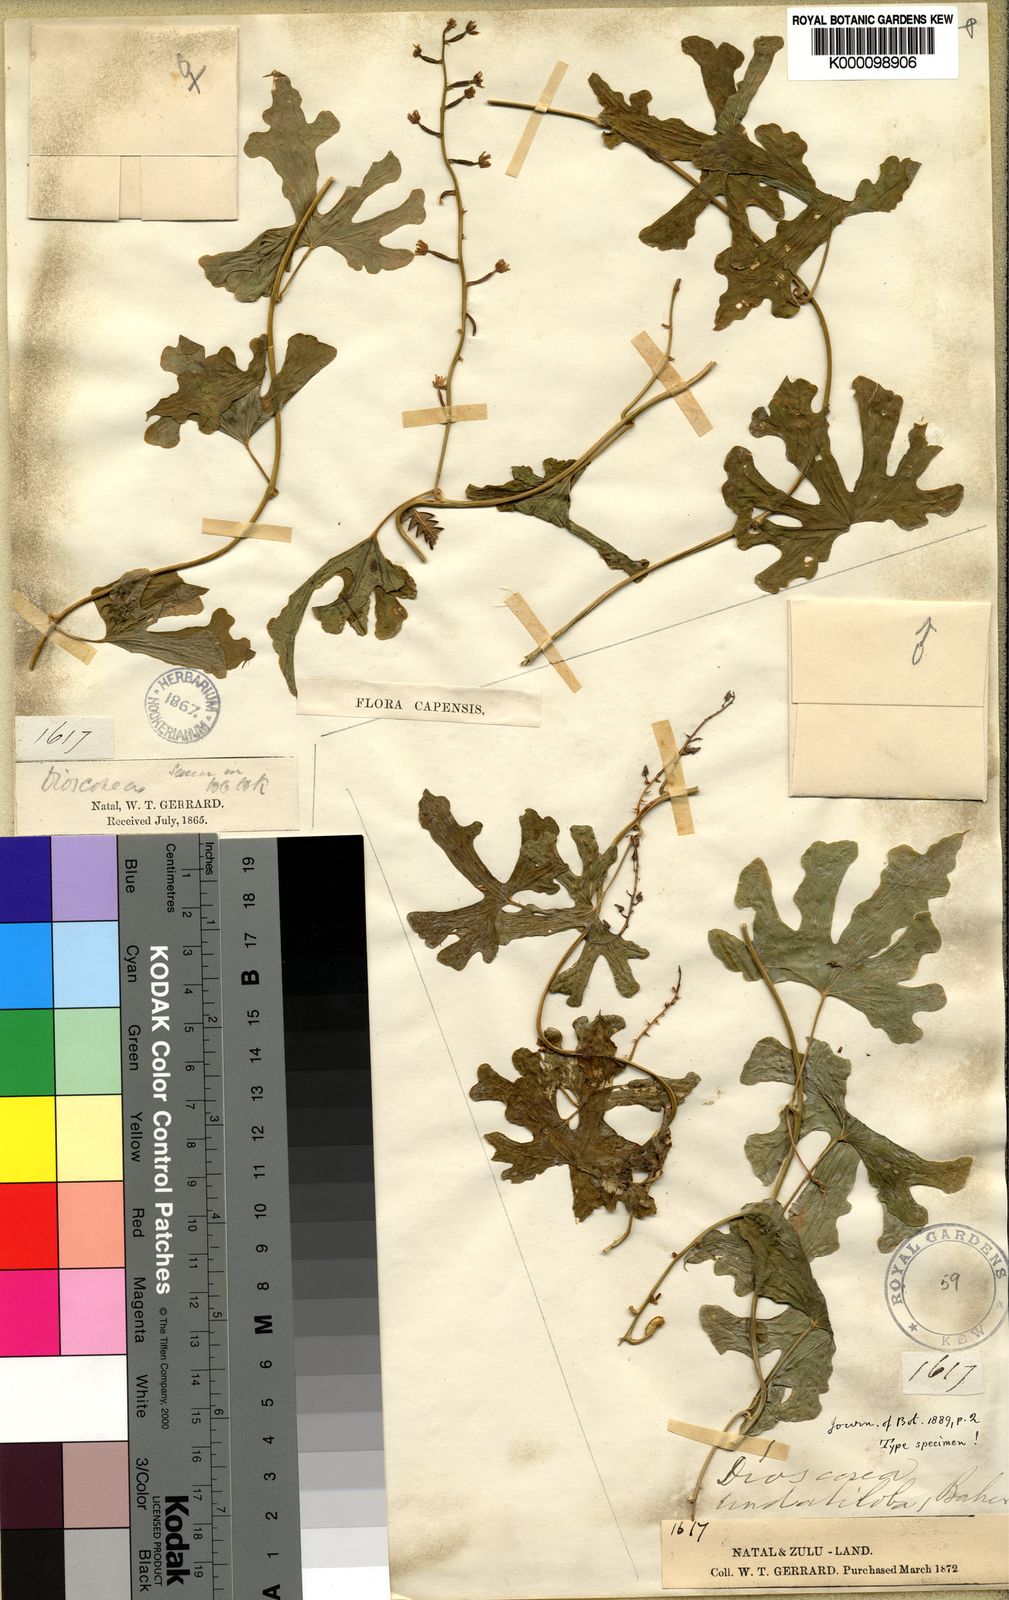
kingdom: Plantae
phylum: Tracheophyta
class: Liliopsida
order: Dioscoreales
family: Dioscoreaceae
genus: Dioscorea
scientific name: Dioscorea buchananii
